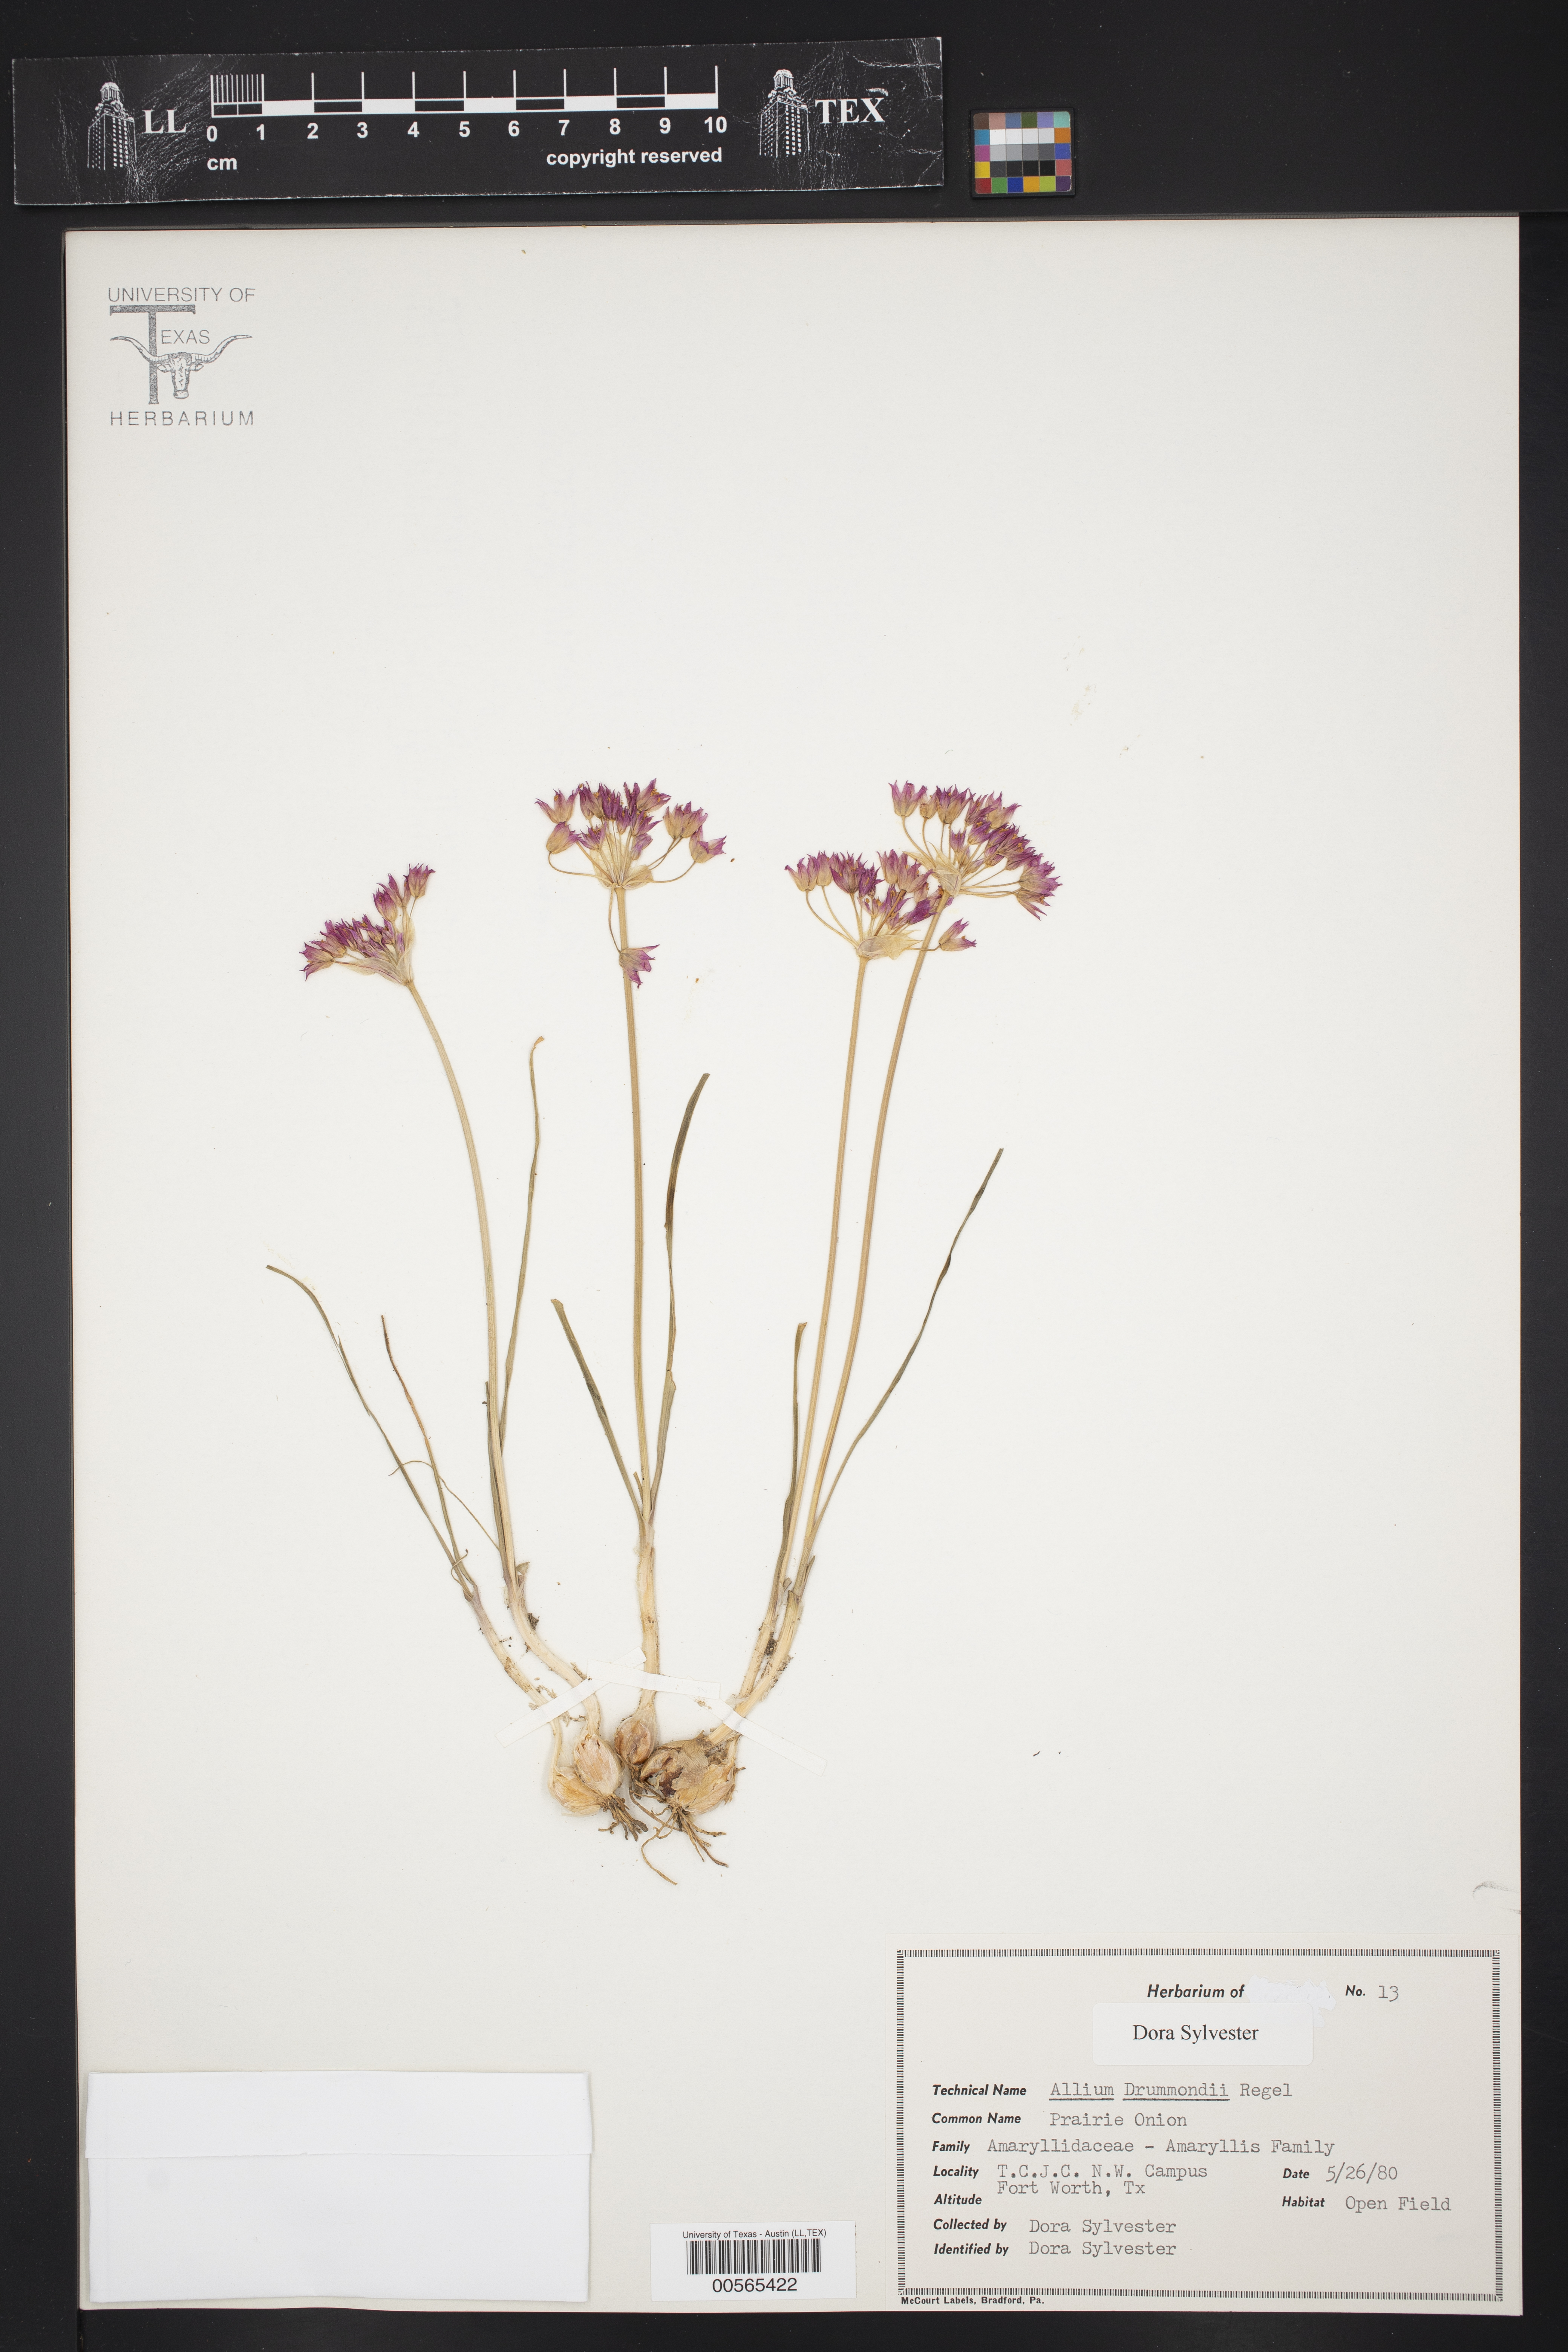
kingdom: Plantae
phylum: Tracheophyta
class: Liliopsida
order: Asparagales
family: Amaryllidaceae
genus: Allium
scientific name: Allium drummondii
